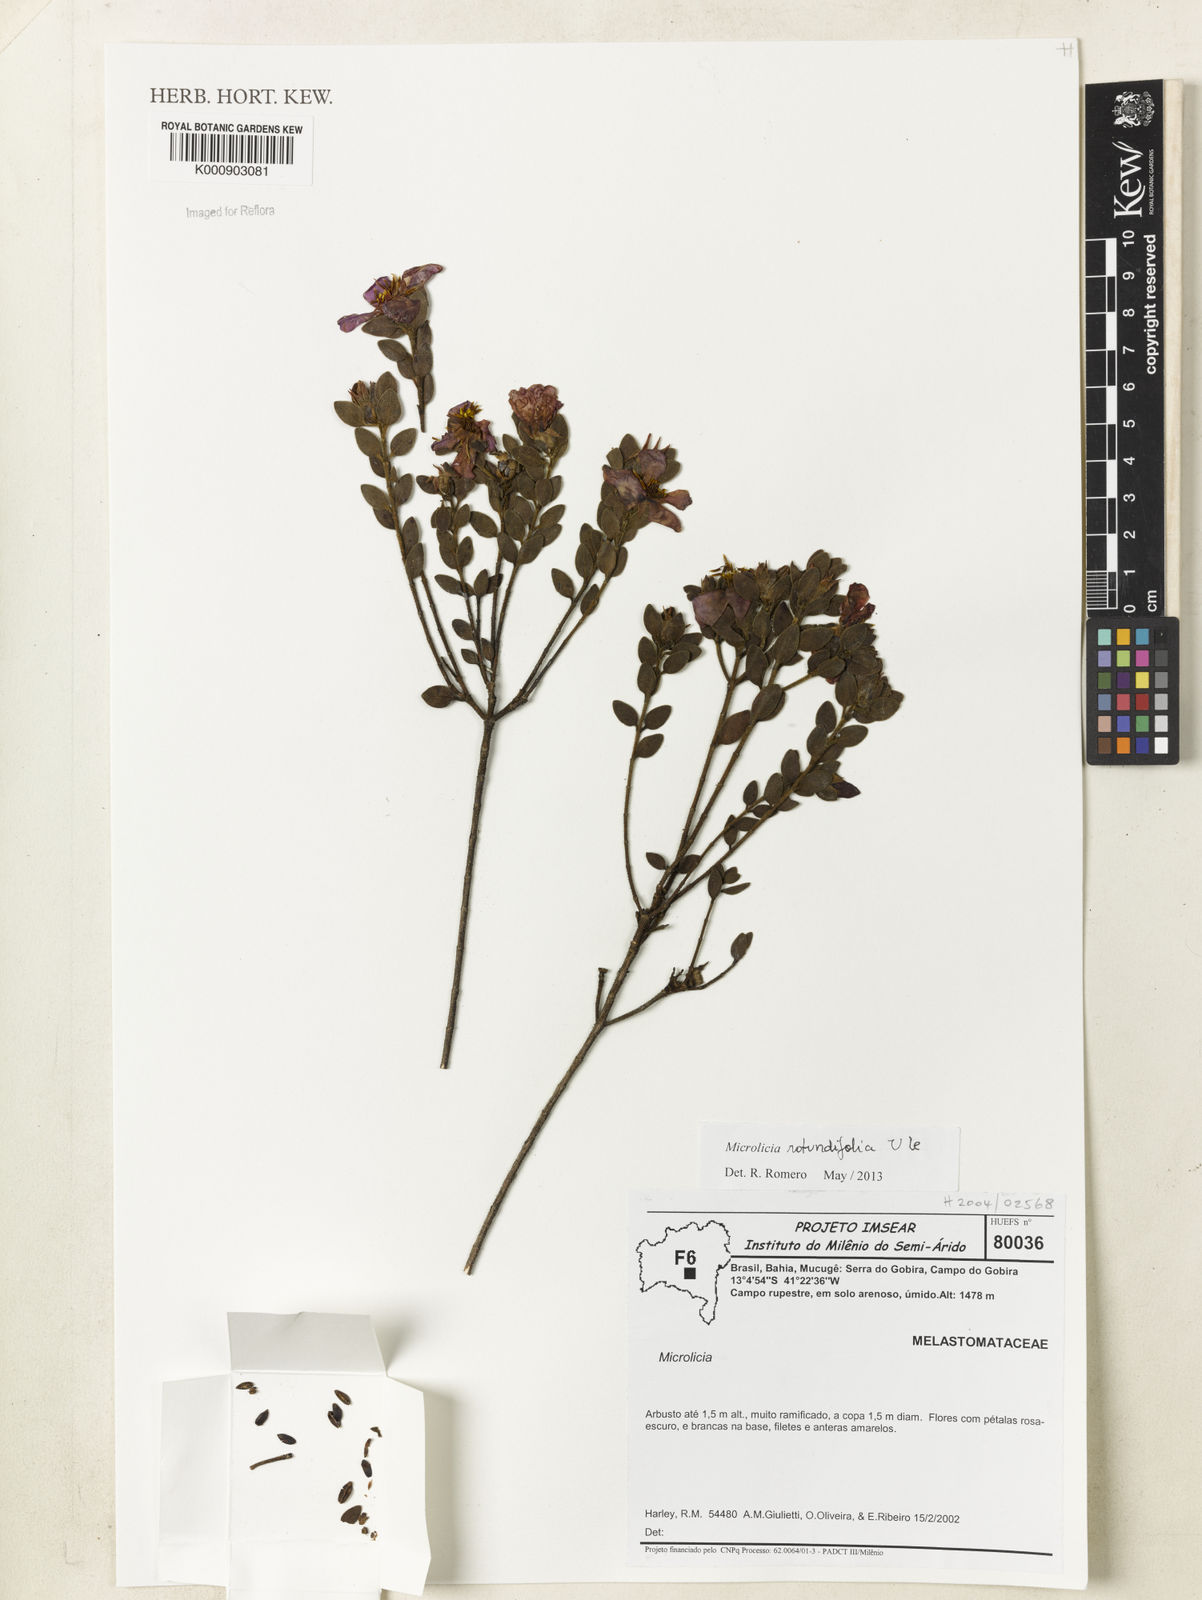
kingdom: Plantae
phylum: Tracheophyta
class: Magnoliopsida
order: Myrtales
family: Melastomataceae
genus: Microlicia
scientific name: Microlicia rotundifolia
